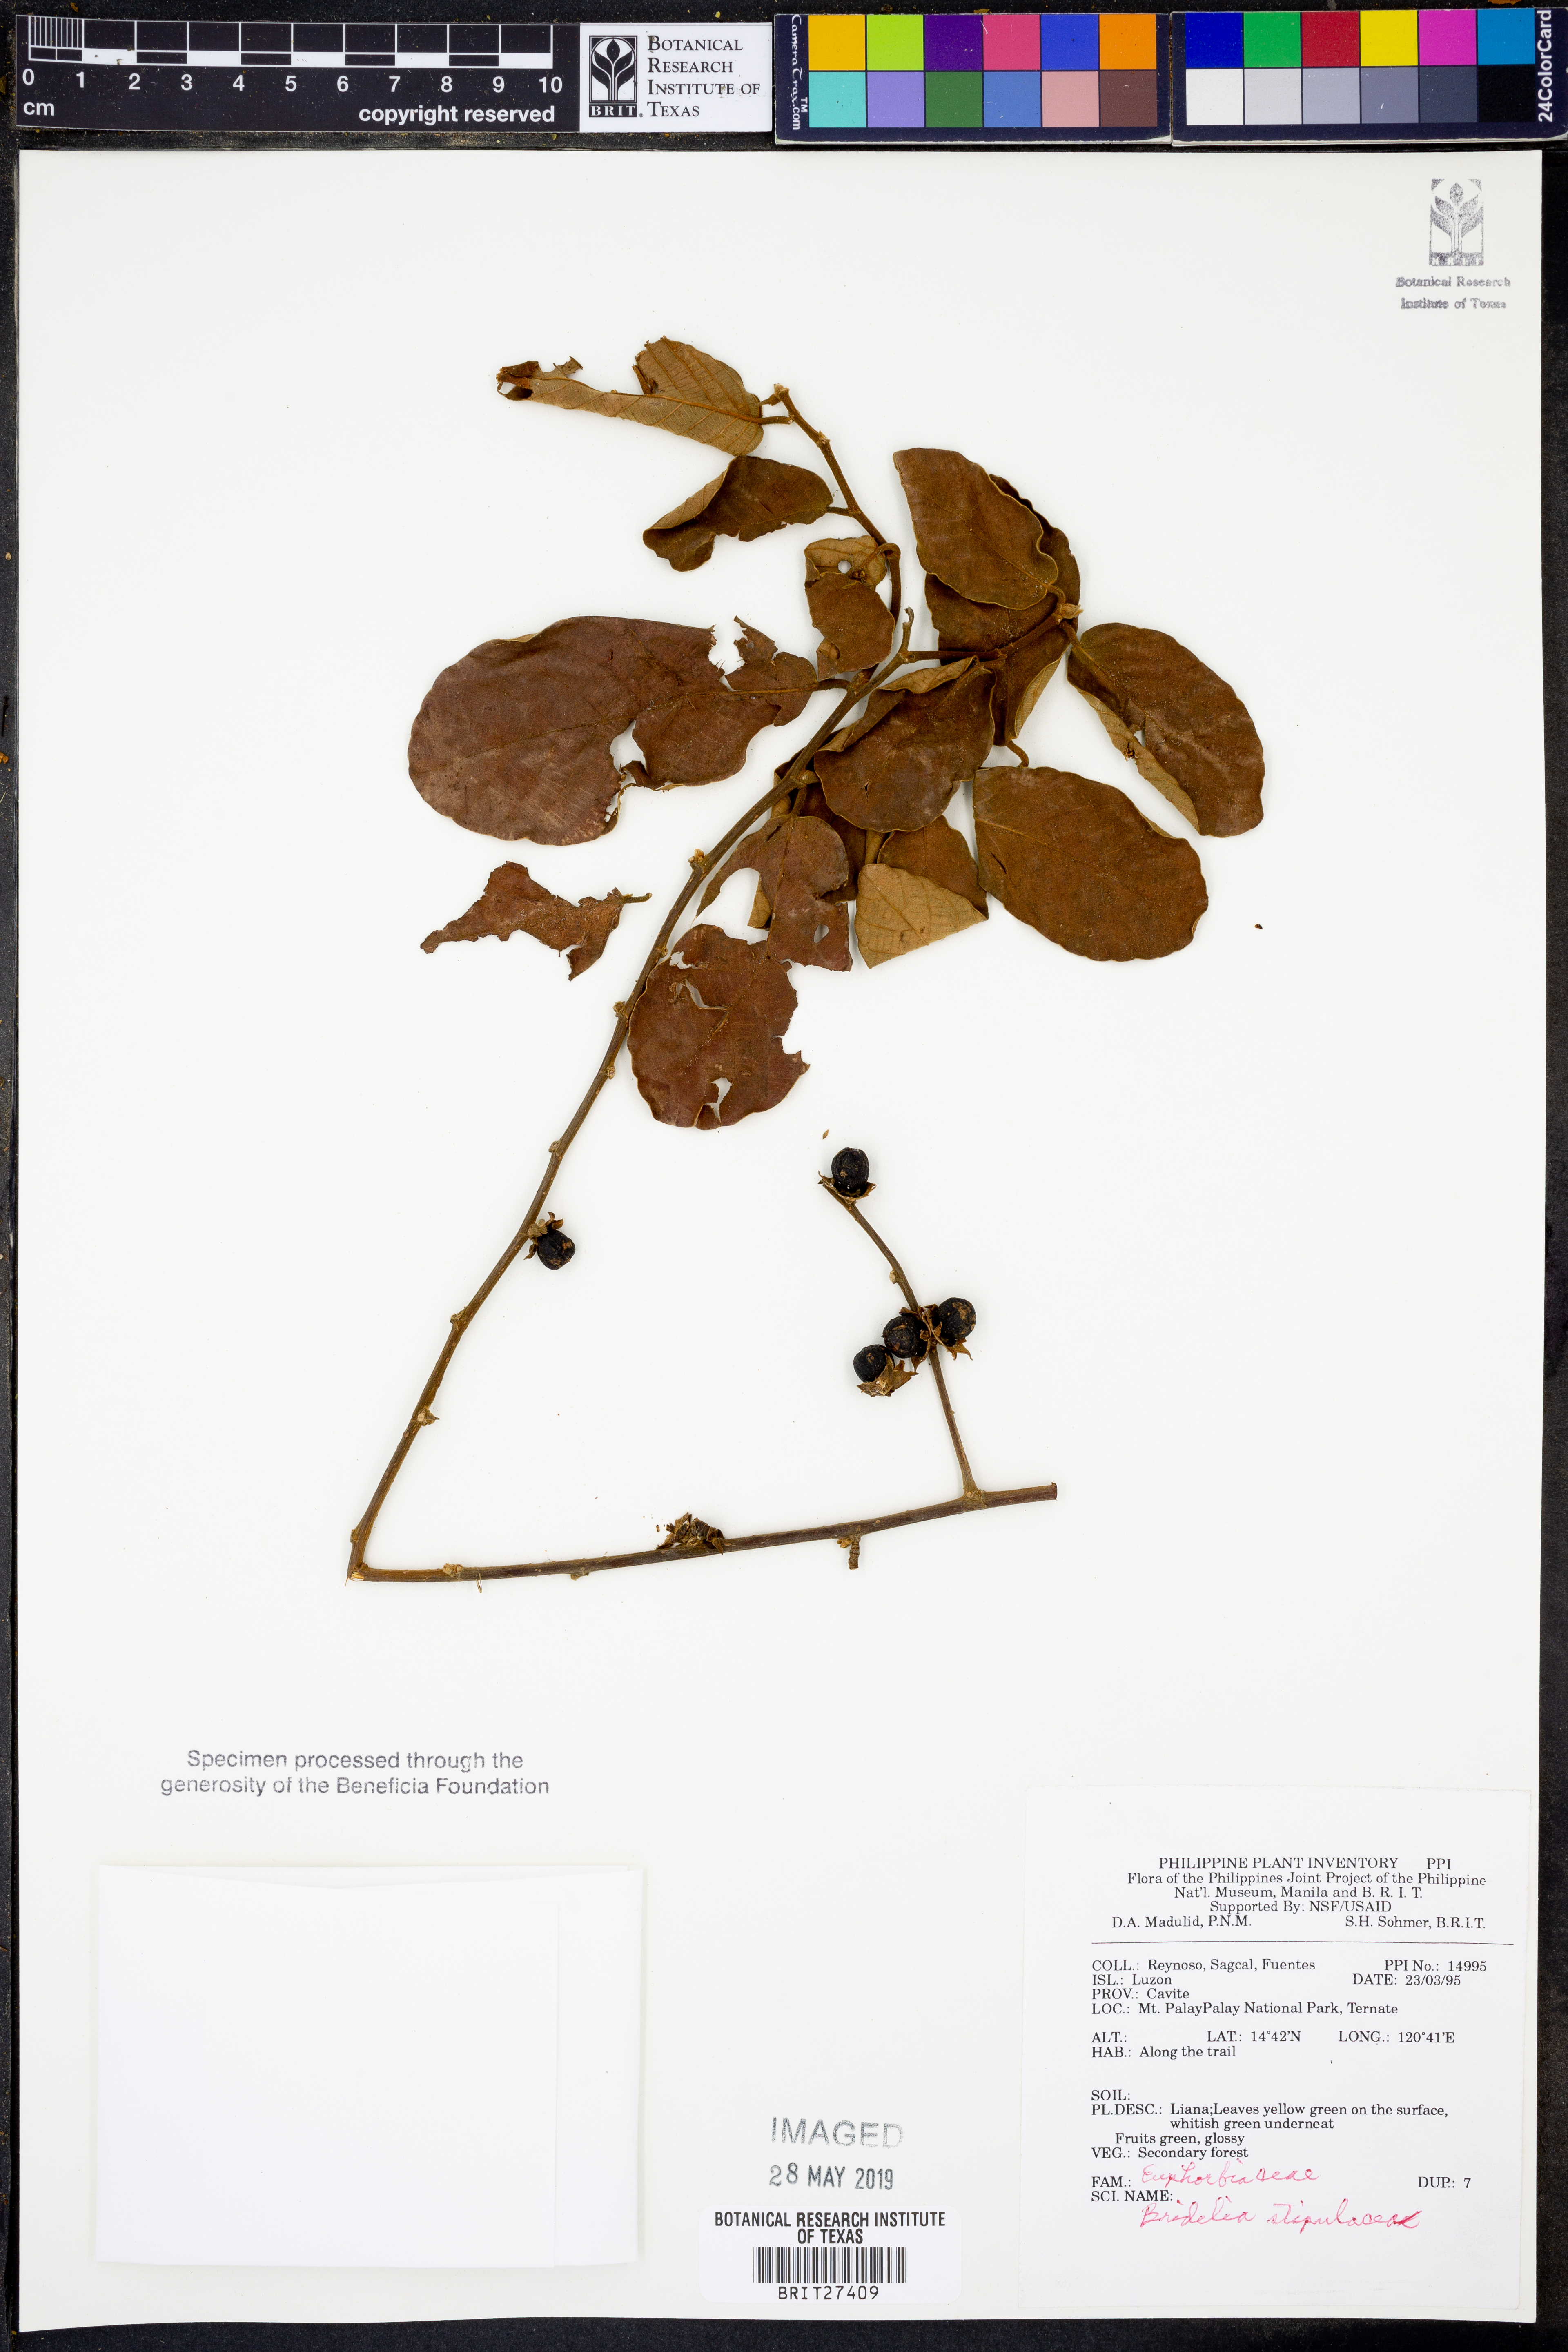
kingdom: Plantae
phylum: Tracheophyta
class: Magnoliopsida
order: Malpighiales
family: Phyllanthaceae
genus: Bridelia
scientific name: Bridelia
